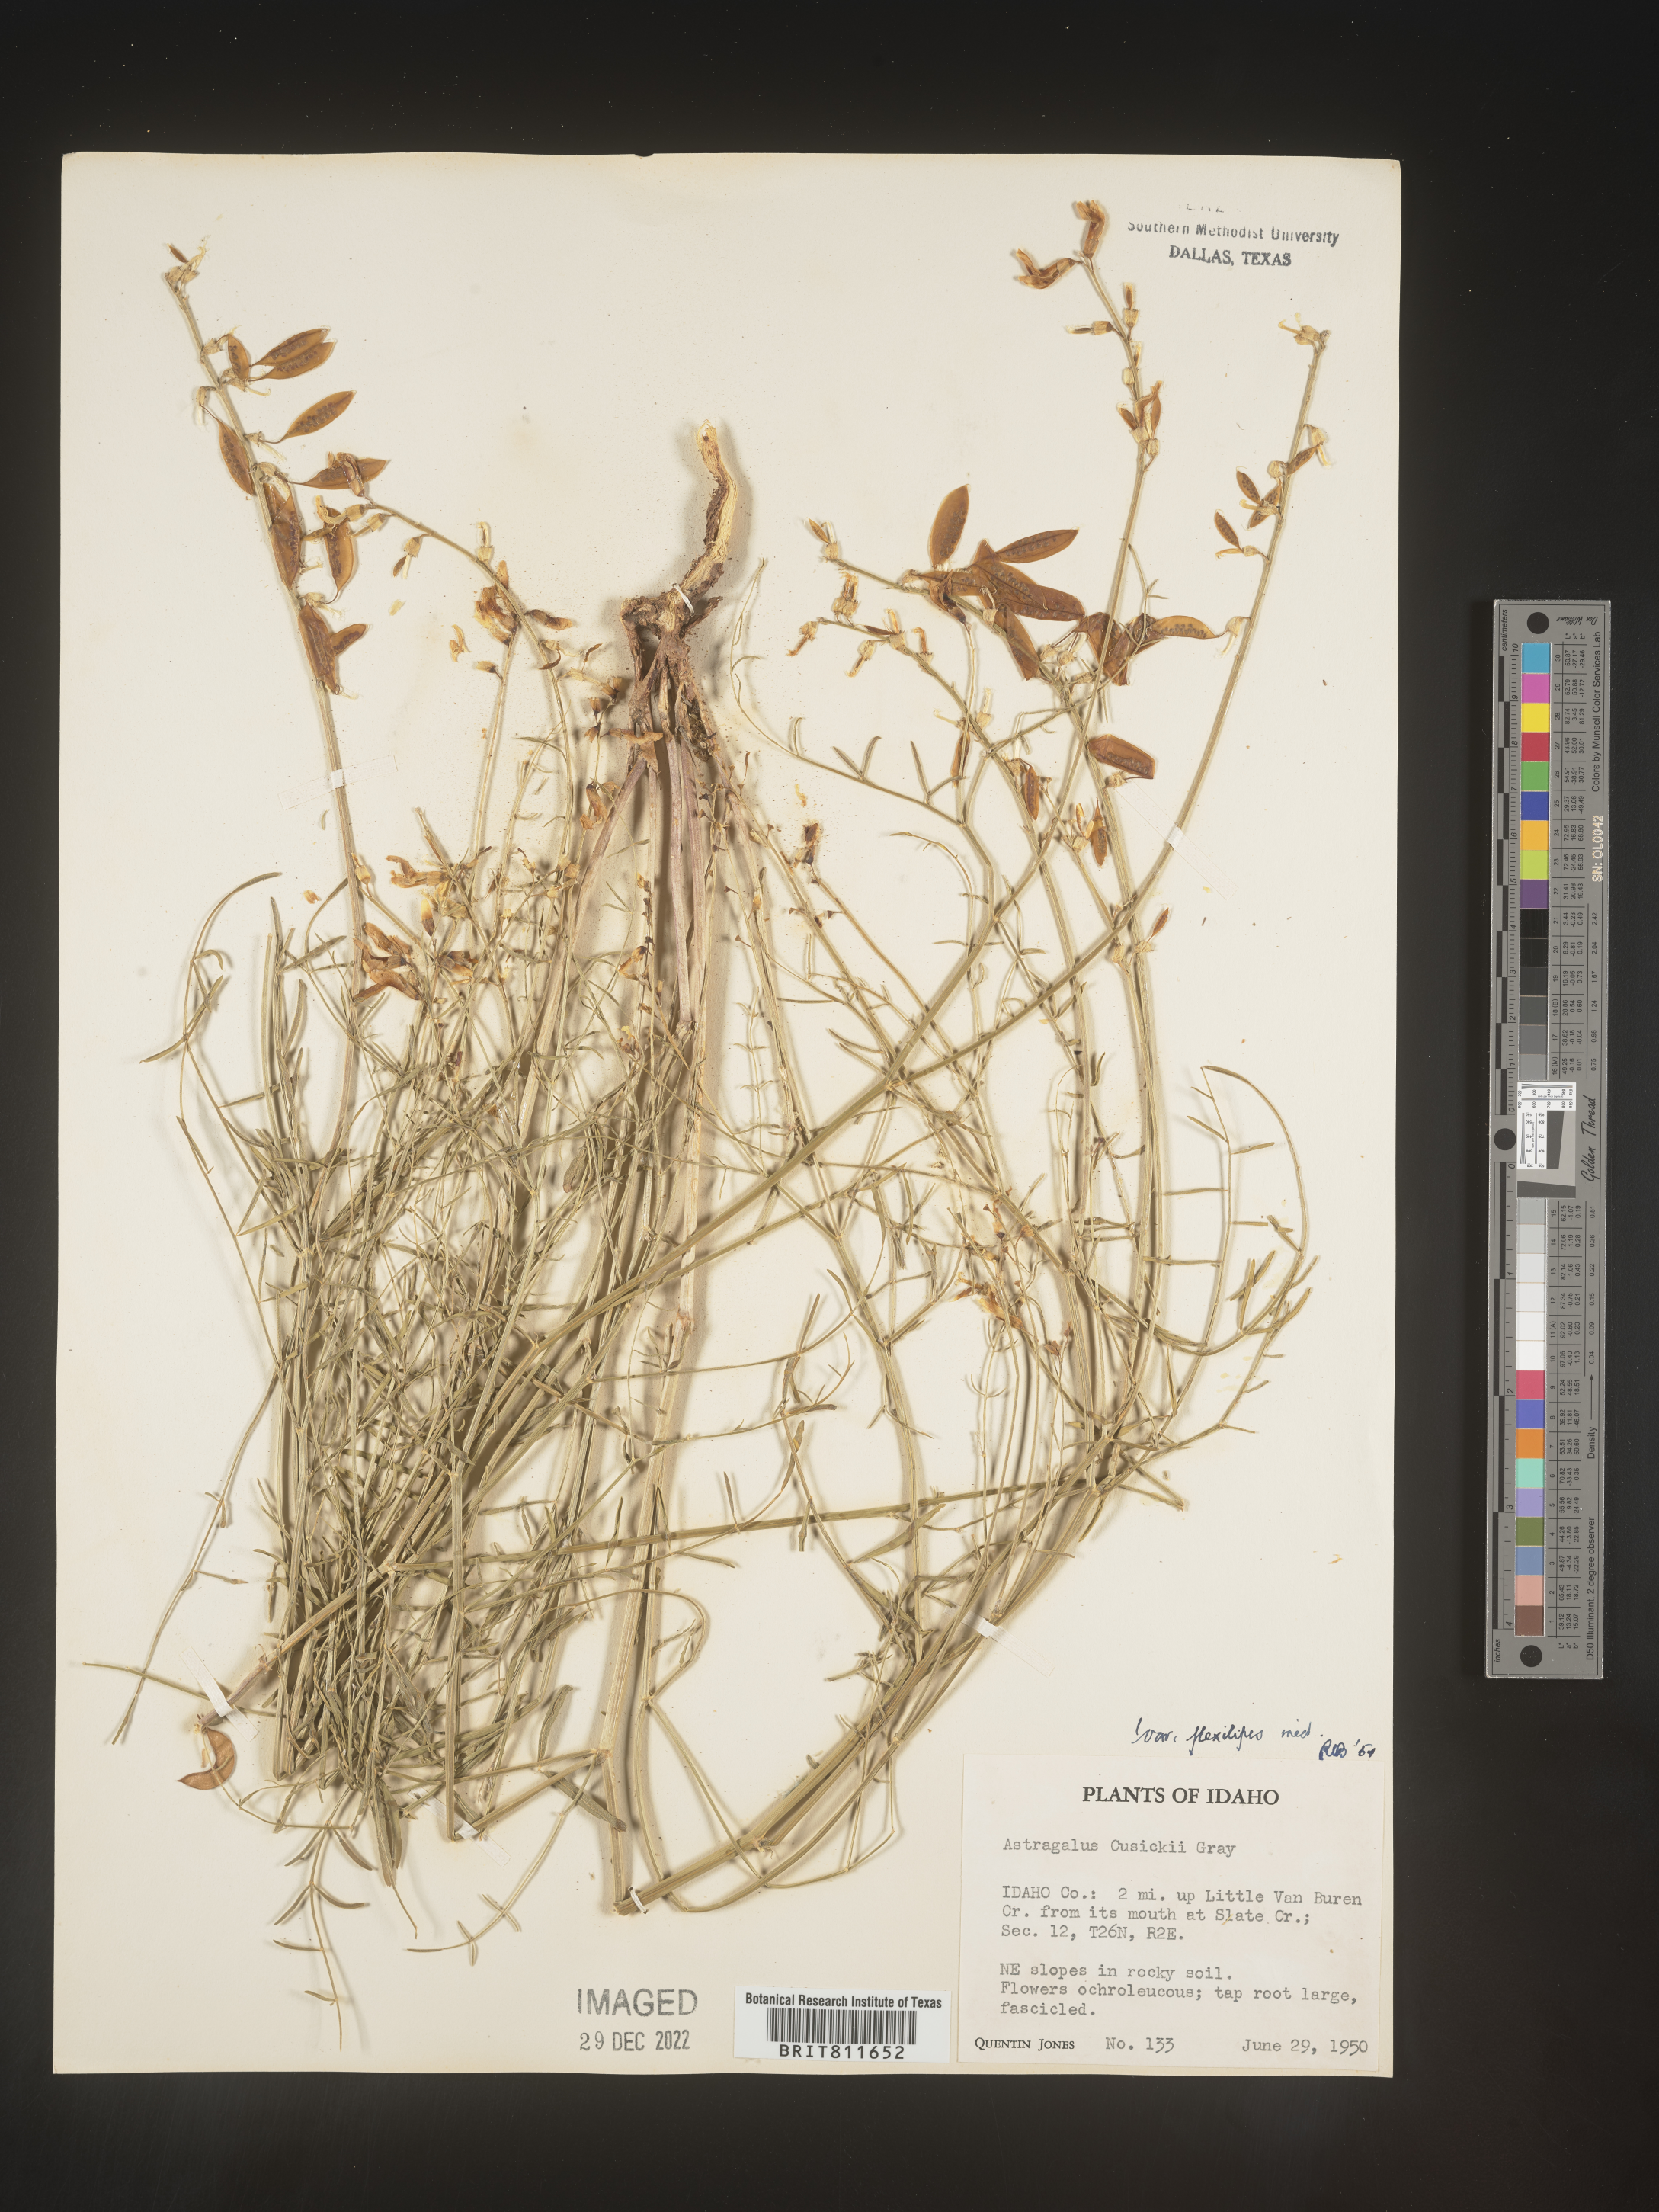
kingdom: Plantae
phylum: Tracheophyta
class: Magnoliopsida
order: Fabales
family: Fabaceae
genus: Astragalus
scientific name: Astragalus eremiticus
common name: Hermit milk-vetch
